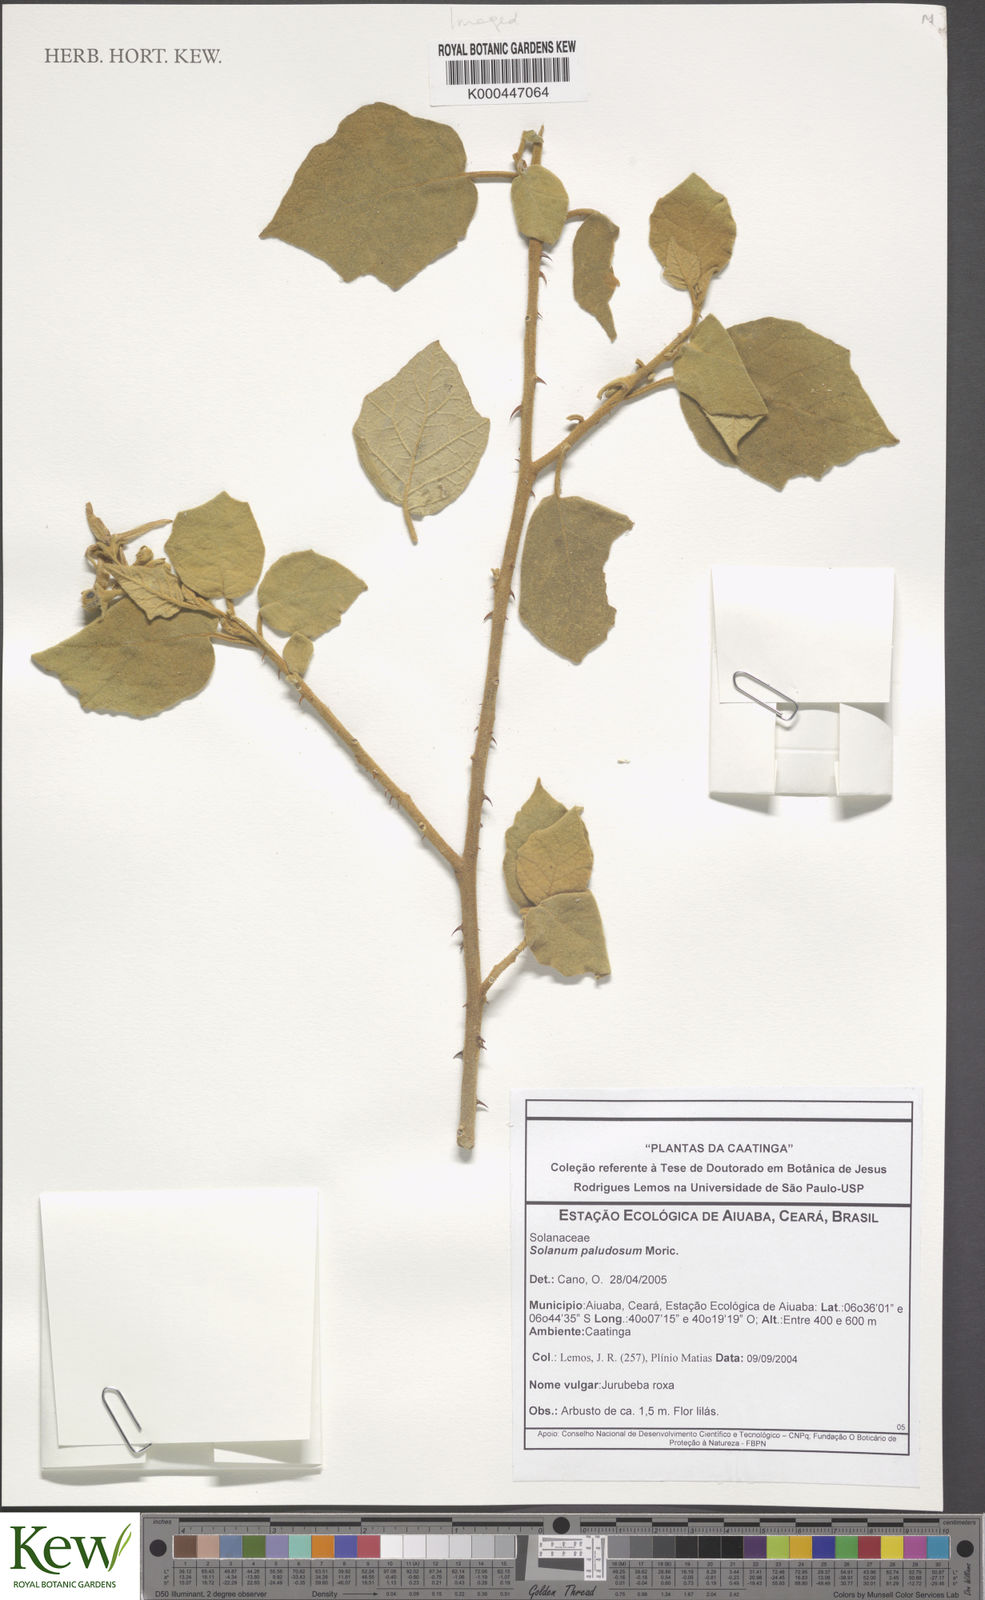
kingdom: Plantae
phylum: Tracheophyta
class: Magnoliopsida
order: Solanales
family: Solanaceae
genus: Solanum
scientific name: Solanum paludosum
